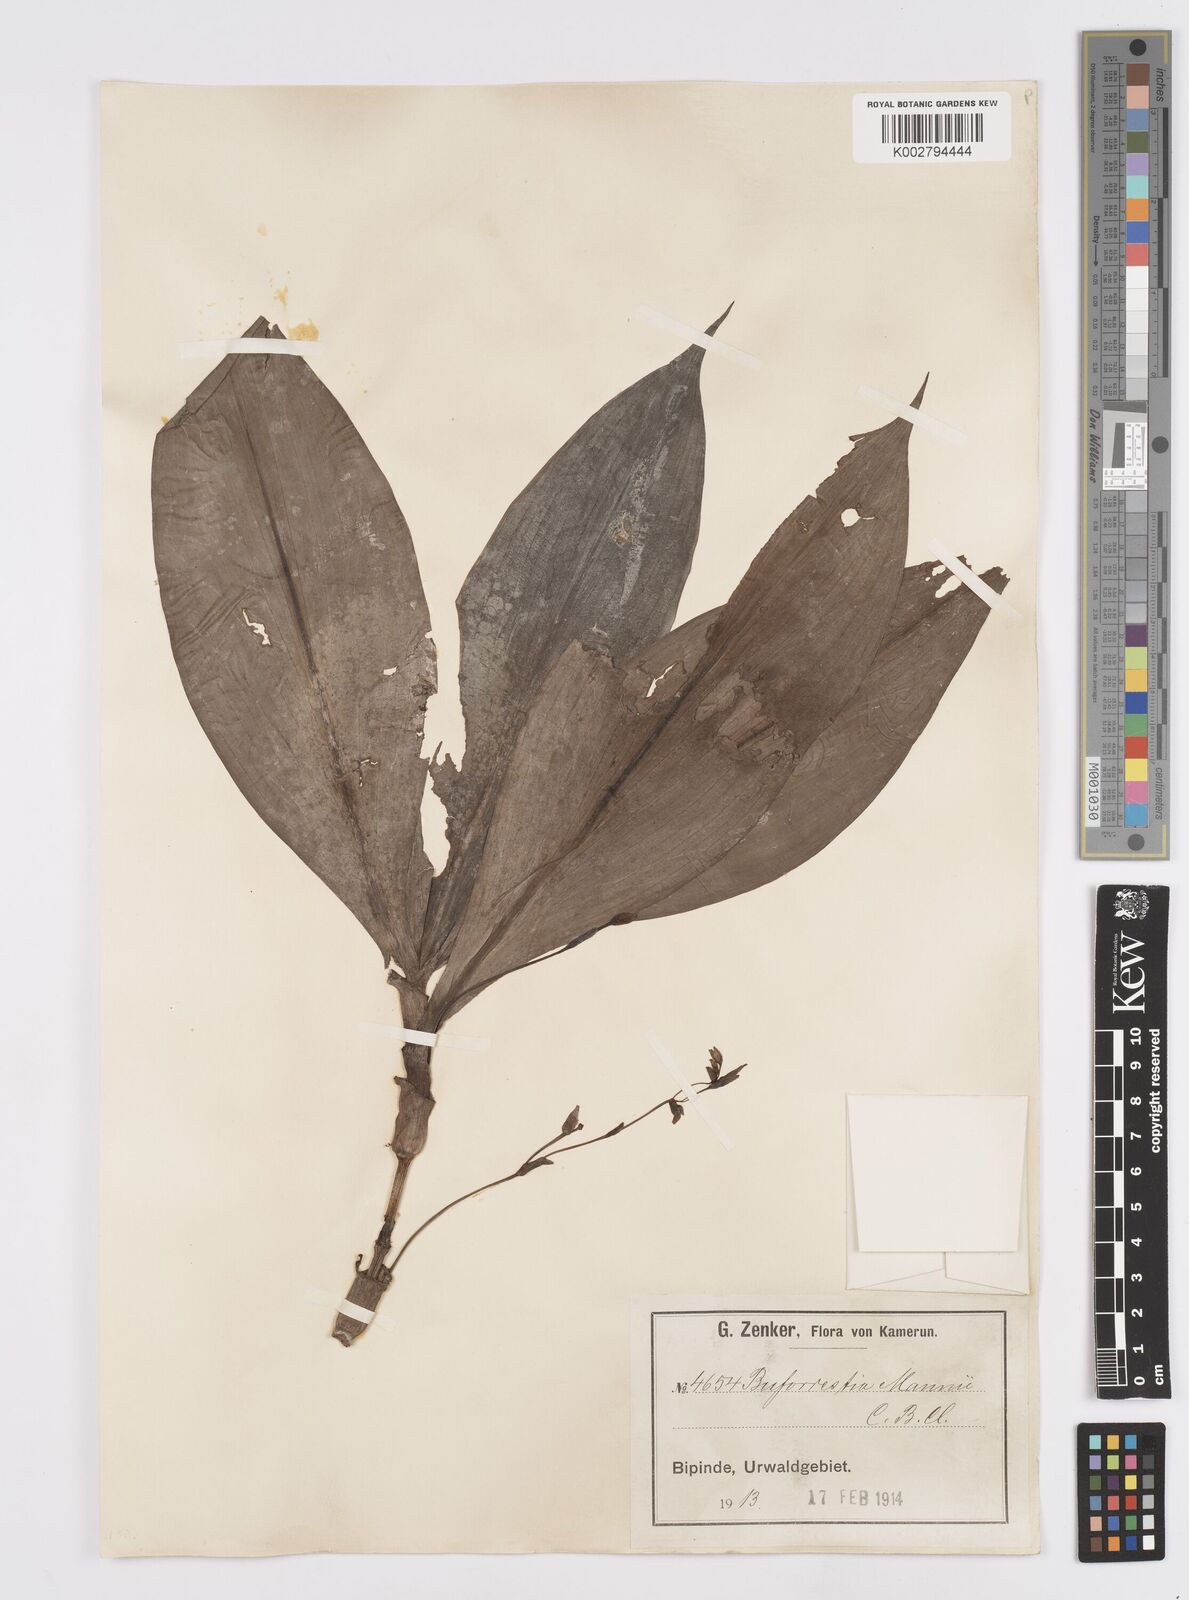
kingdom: Plantae
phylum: Tracheophyta
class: Liliopsida
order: Commelinales
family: Commelinaceae
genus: Buforrestia
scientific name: Buforrestia mannii
